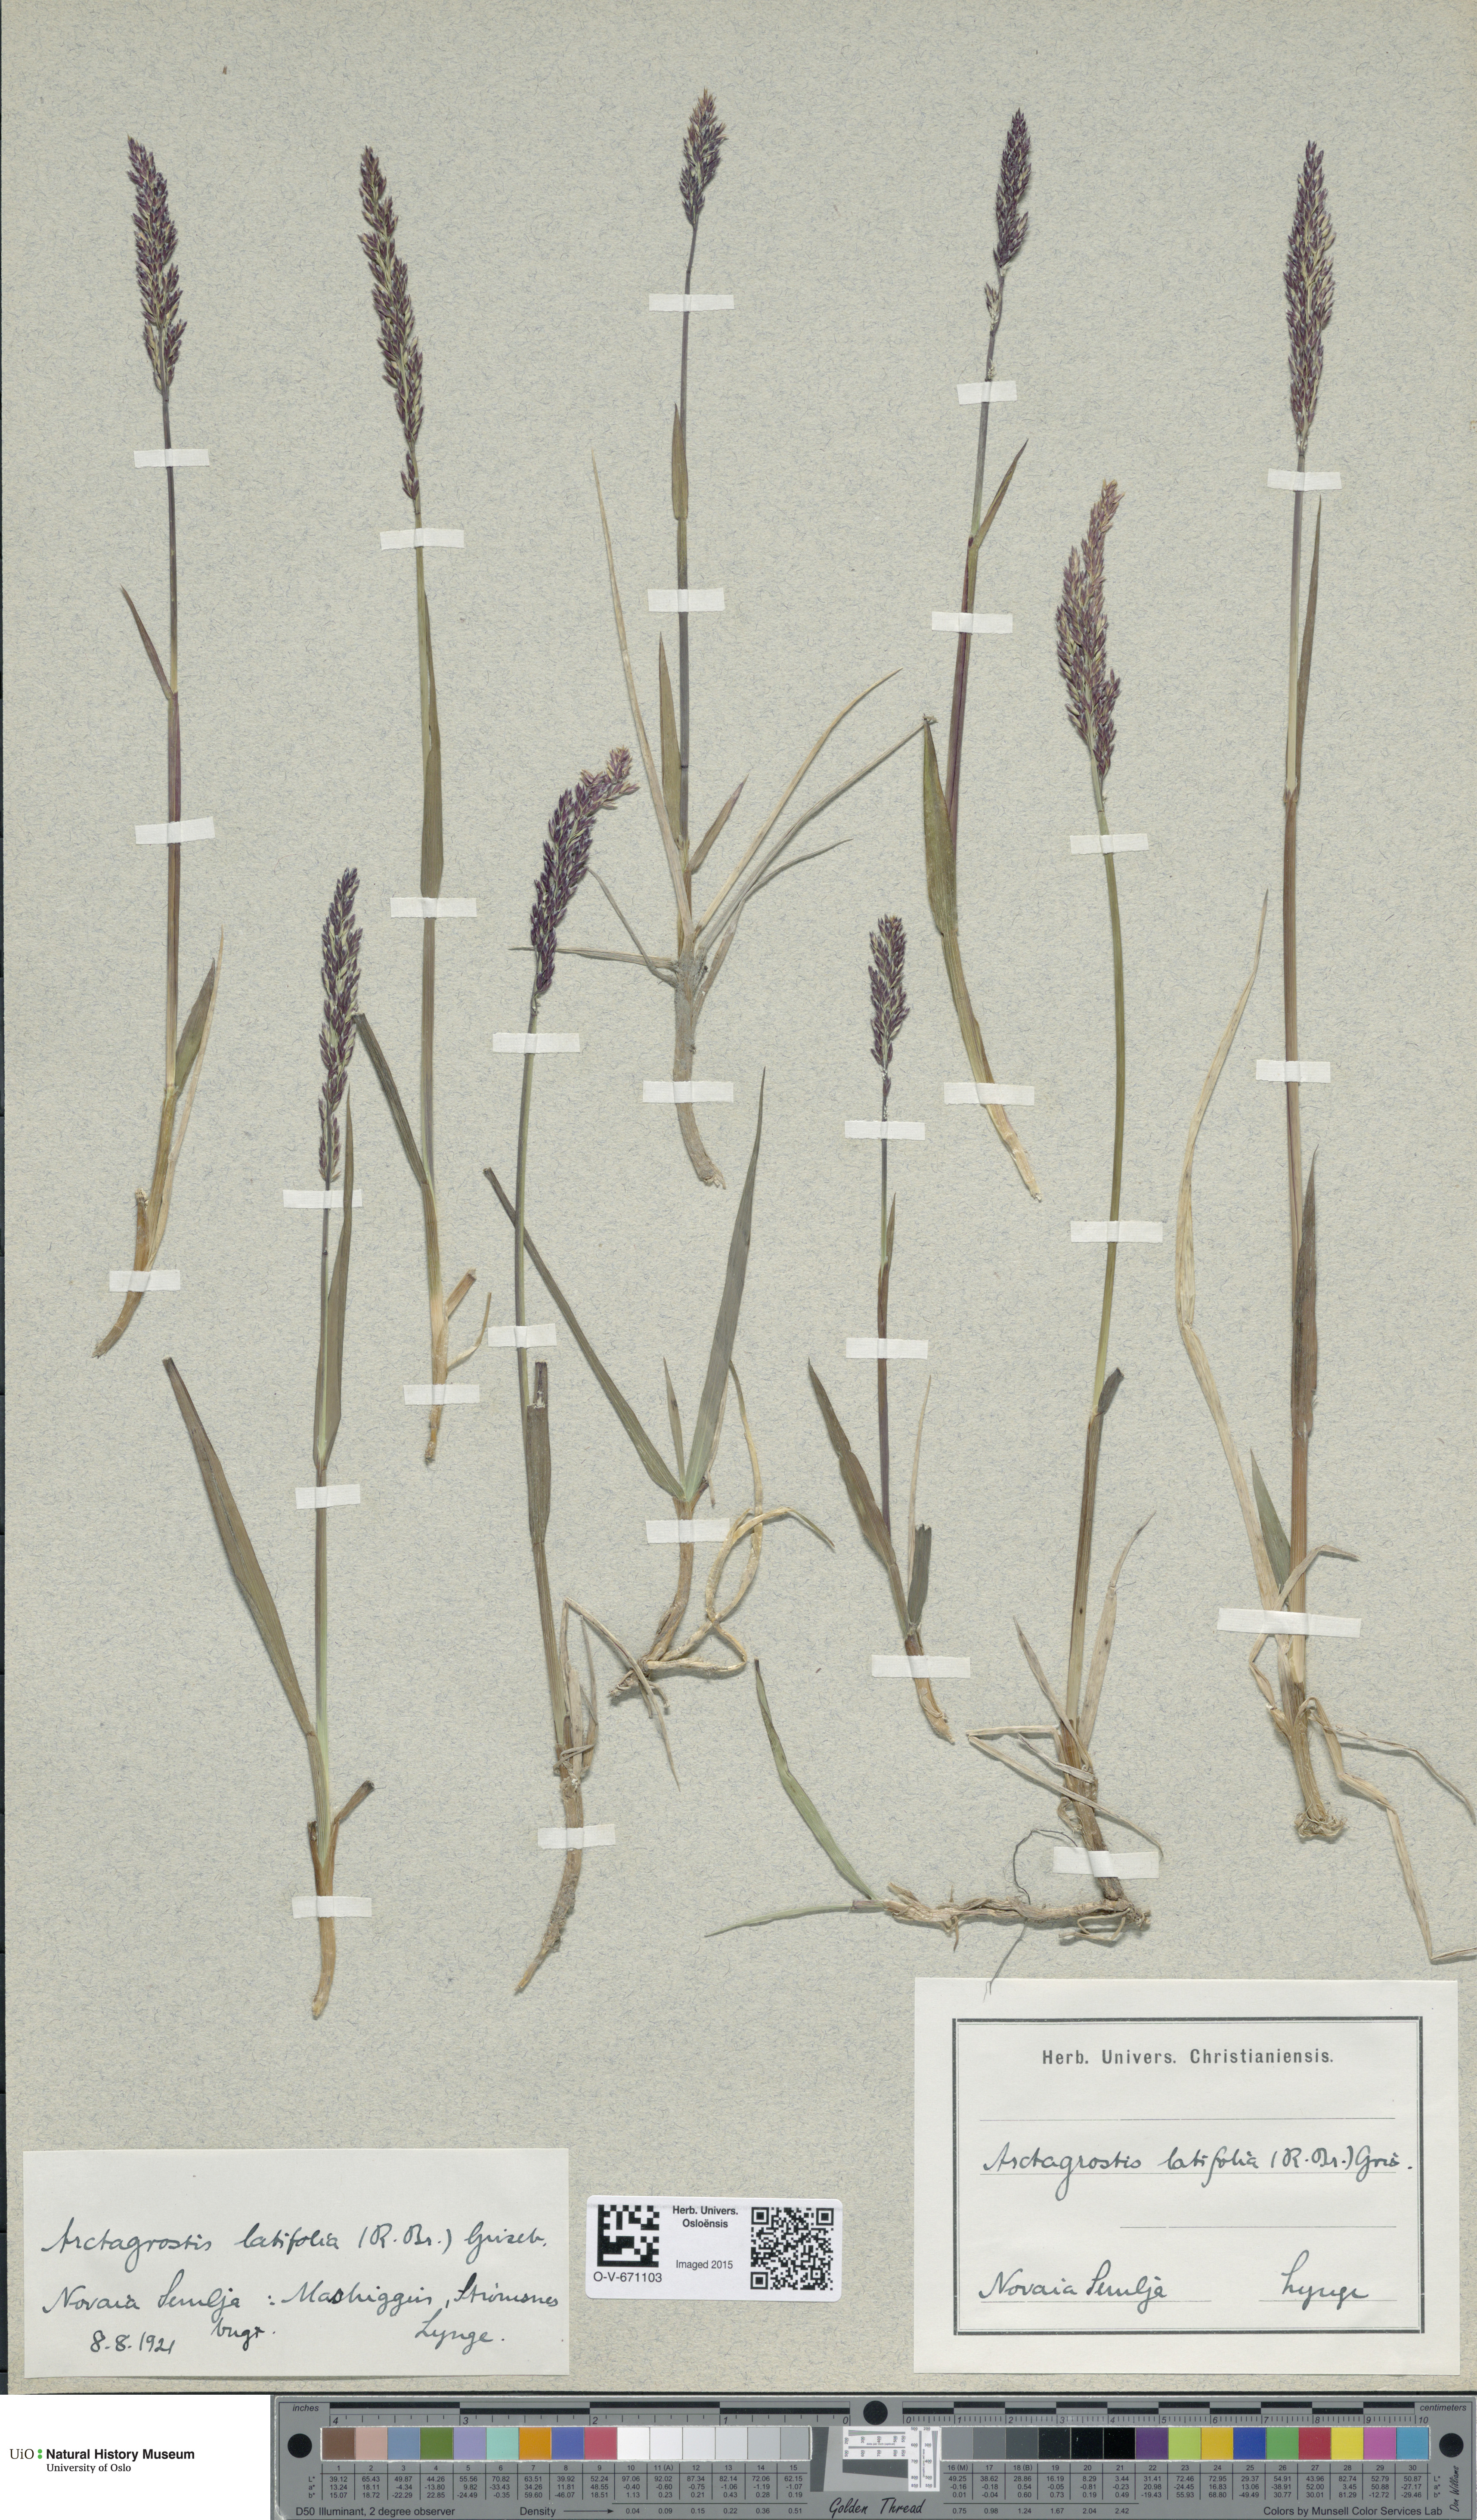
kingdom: Plantae
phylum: Tracheophyta
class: Liliopsida
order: Poales
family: Poaceae
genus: Arctagrostis
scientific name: Arctagrostis latifolia
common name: Arctic grass
